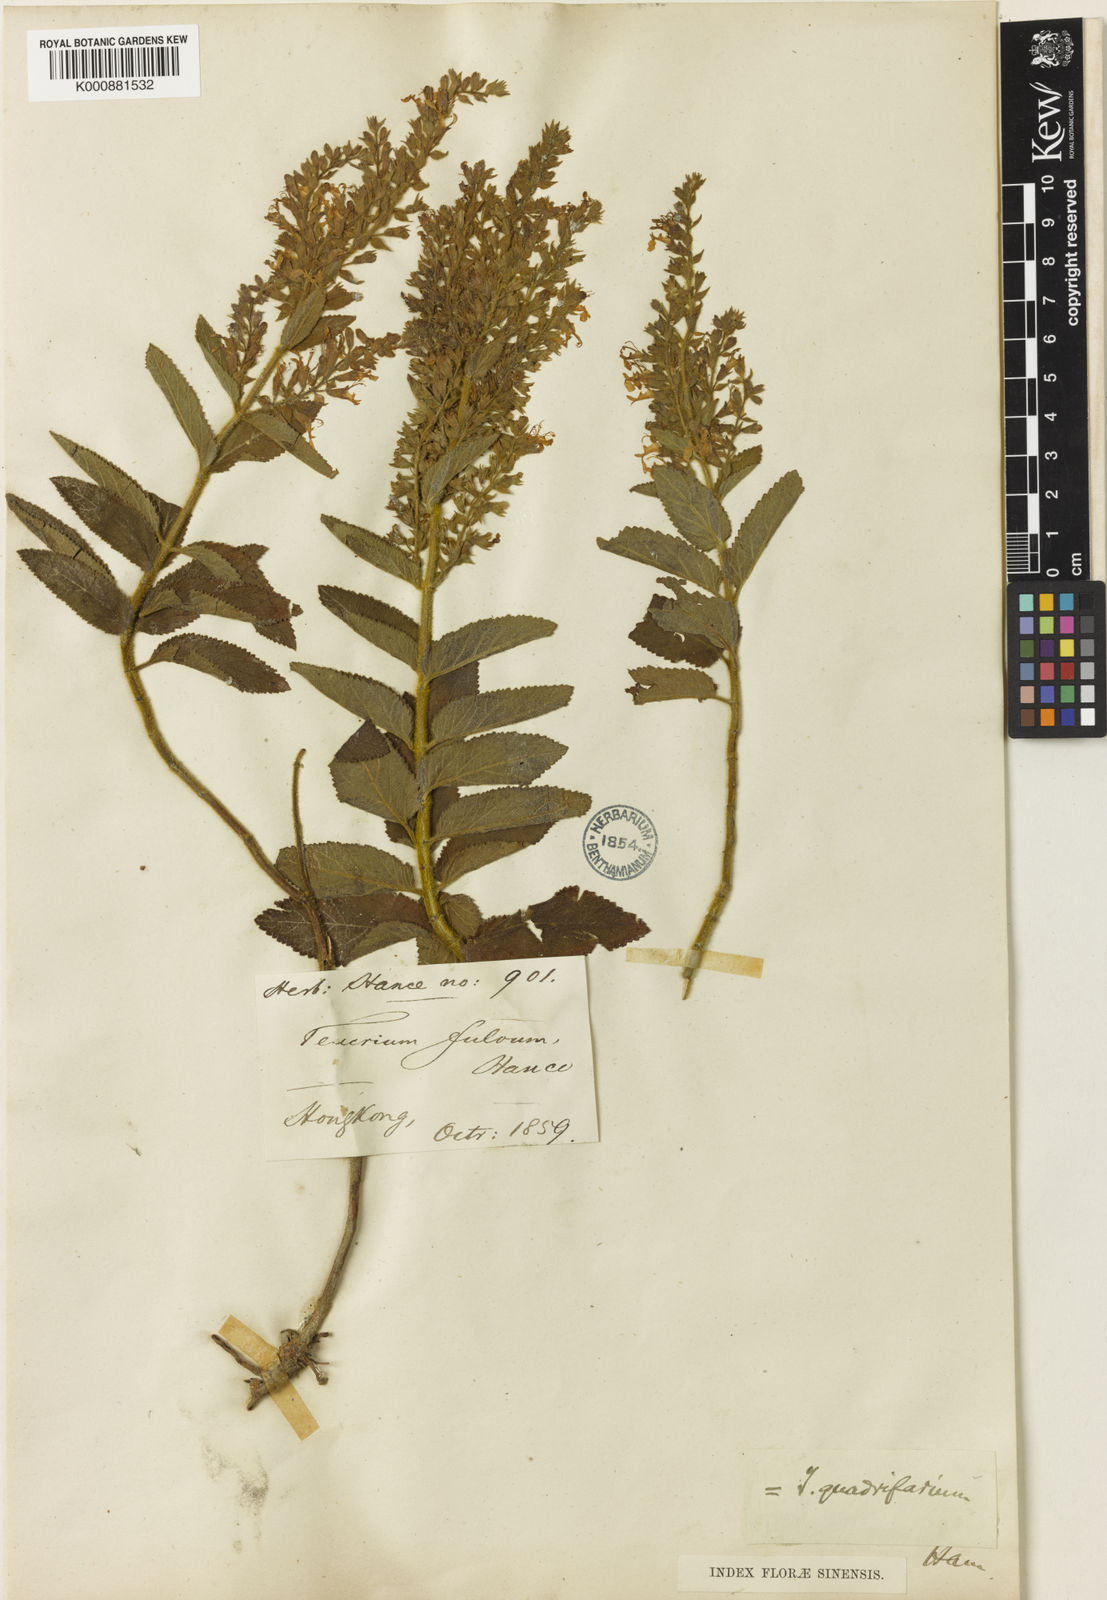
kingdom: Plantae
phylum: Tracheophyta
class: Magnoliopsida
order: Lamiales
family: Lamiaceae
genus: Teucrium
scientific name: Teucrium
